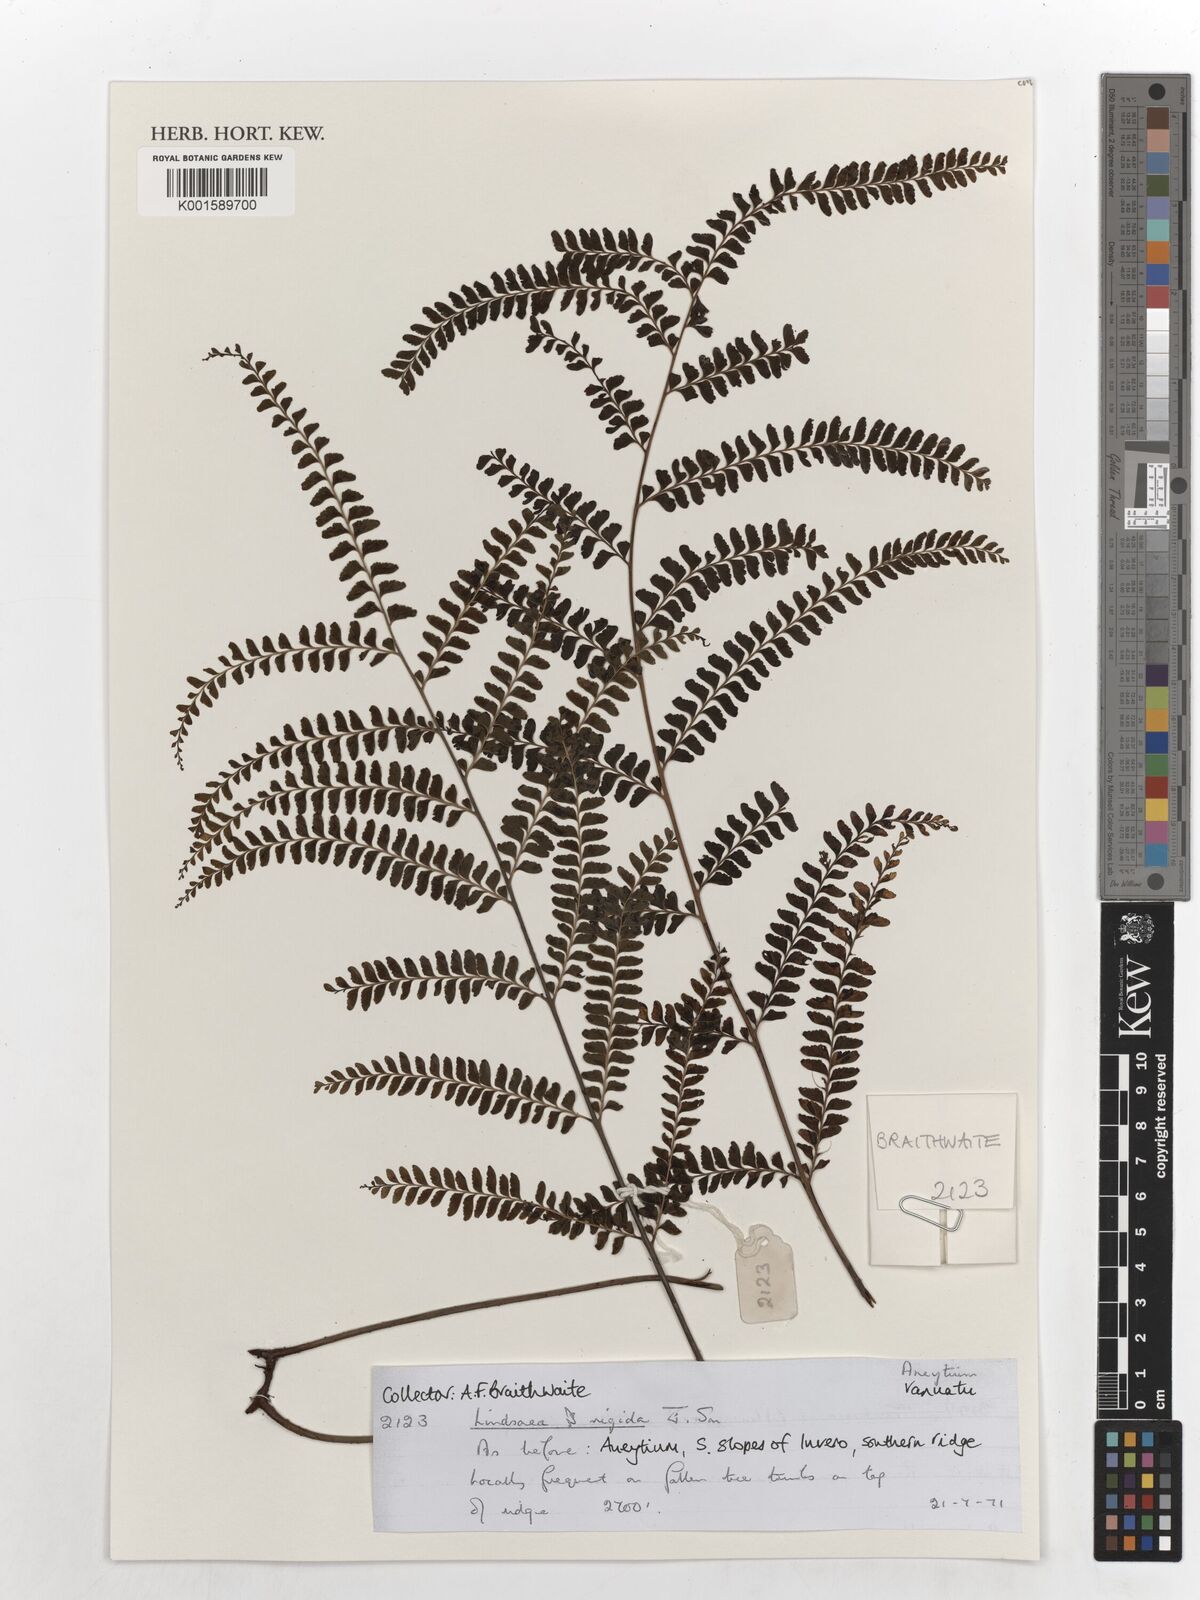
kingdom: Plantae
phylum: Tracheophyta
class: Polypodiopsida
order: Polypodiales
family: Lindsaeaceae
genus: Lindsaea
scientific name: Lindsaea rigida
